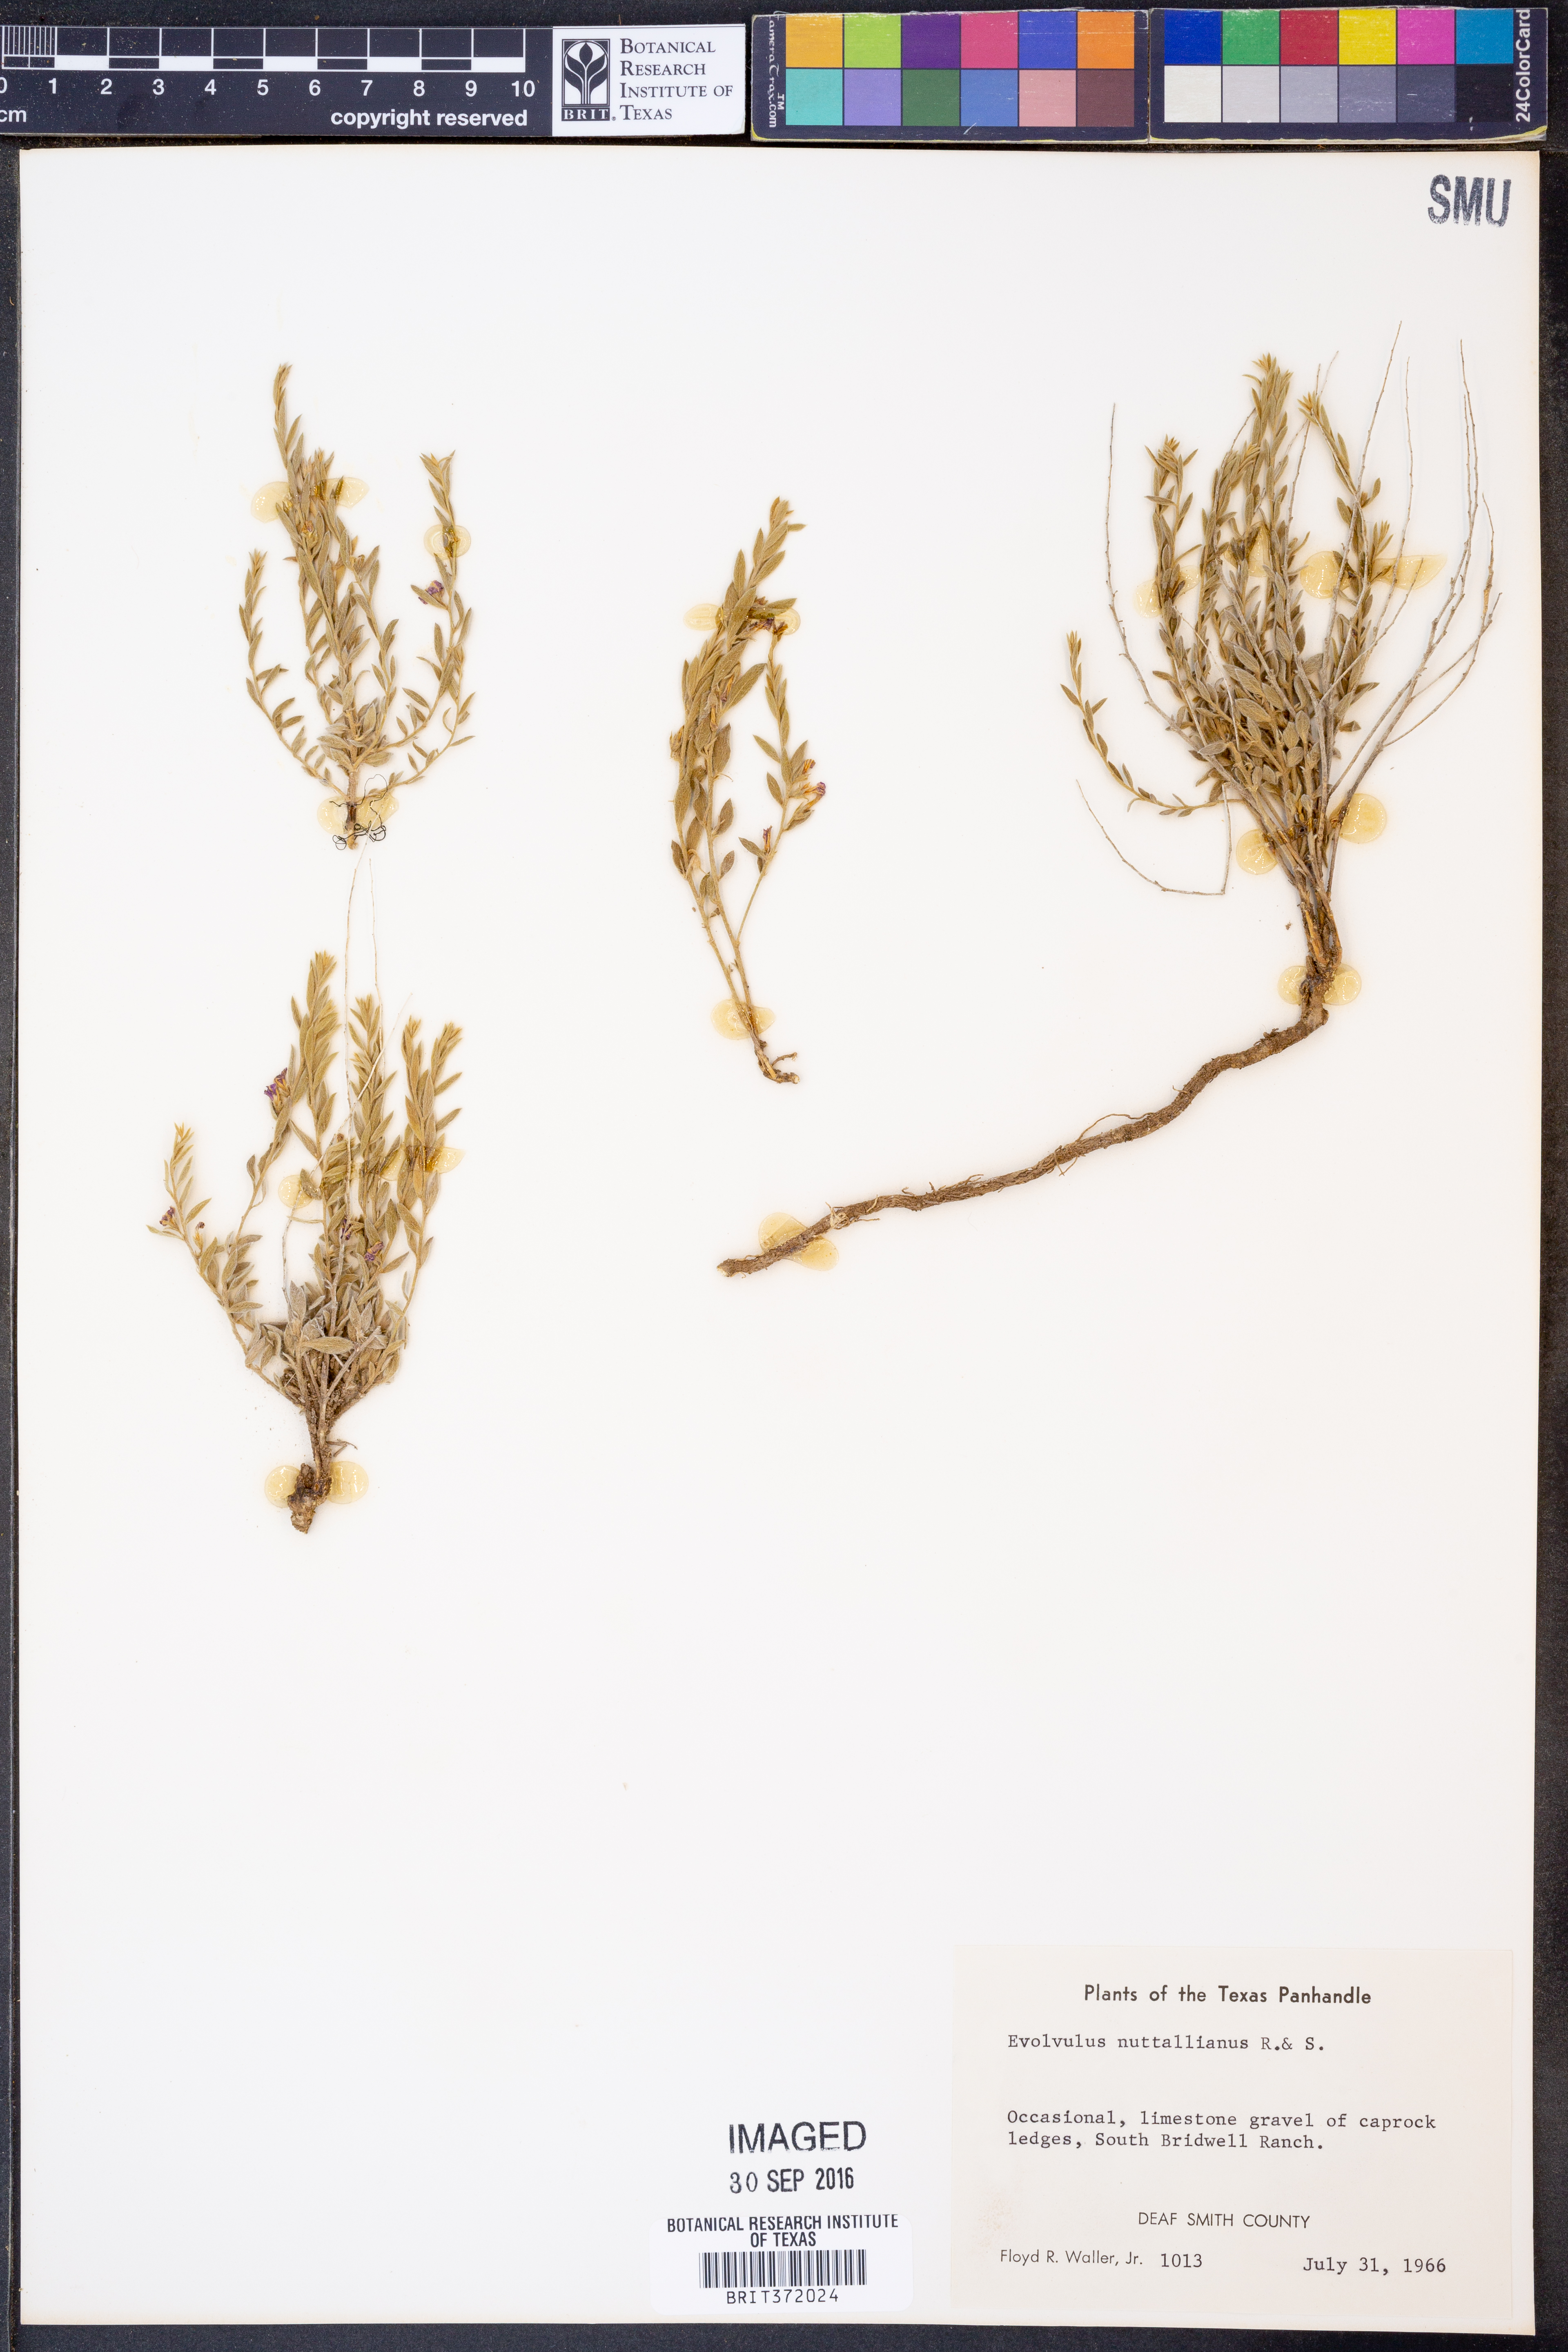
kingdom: Plantae
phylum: Tracheophyta
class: Magnoliopsida
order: Solanales
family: Convolvulaceae
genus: Evolvulus
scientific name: Evolvulus nuttallianus
